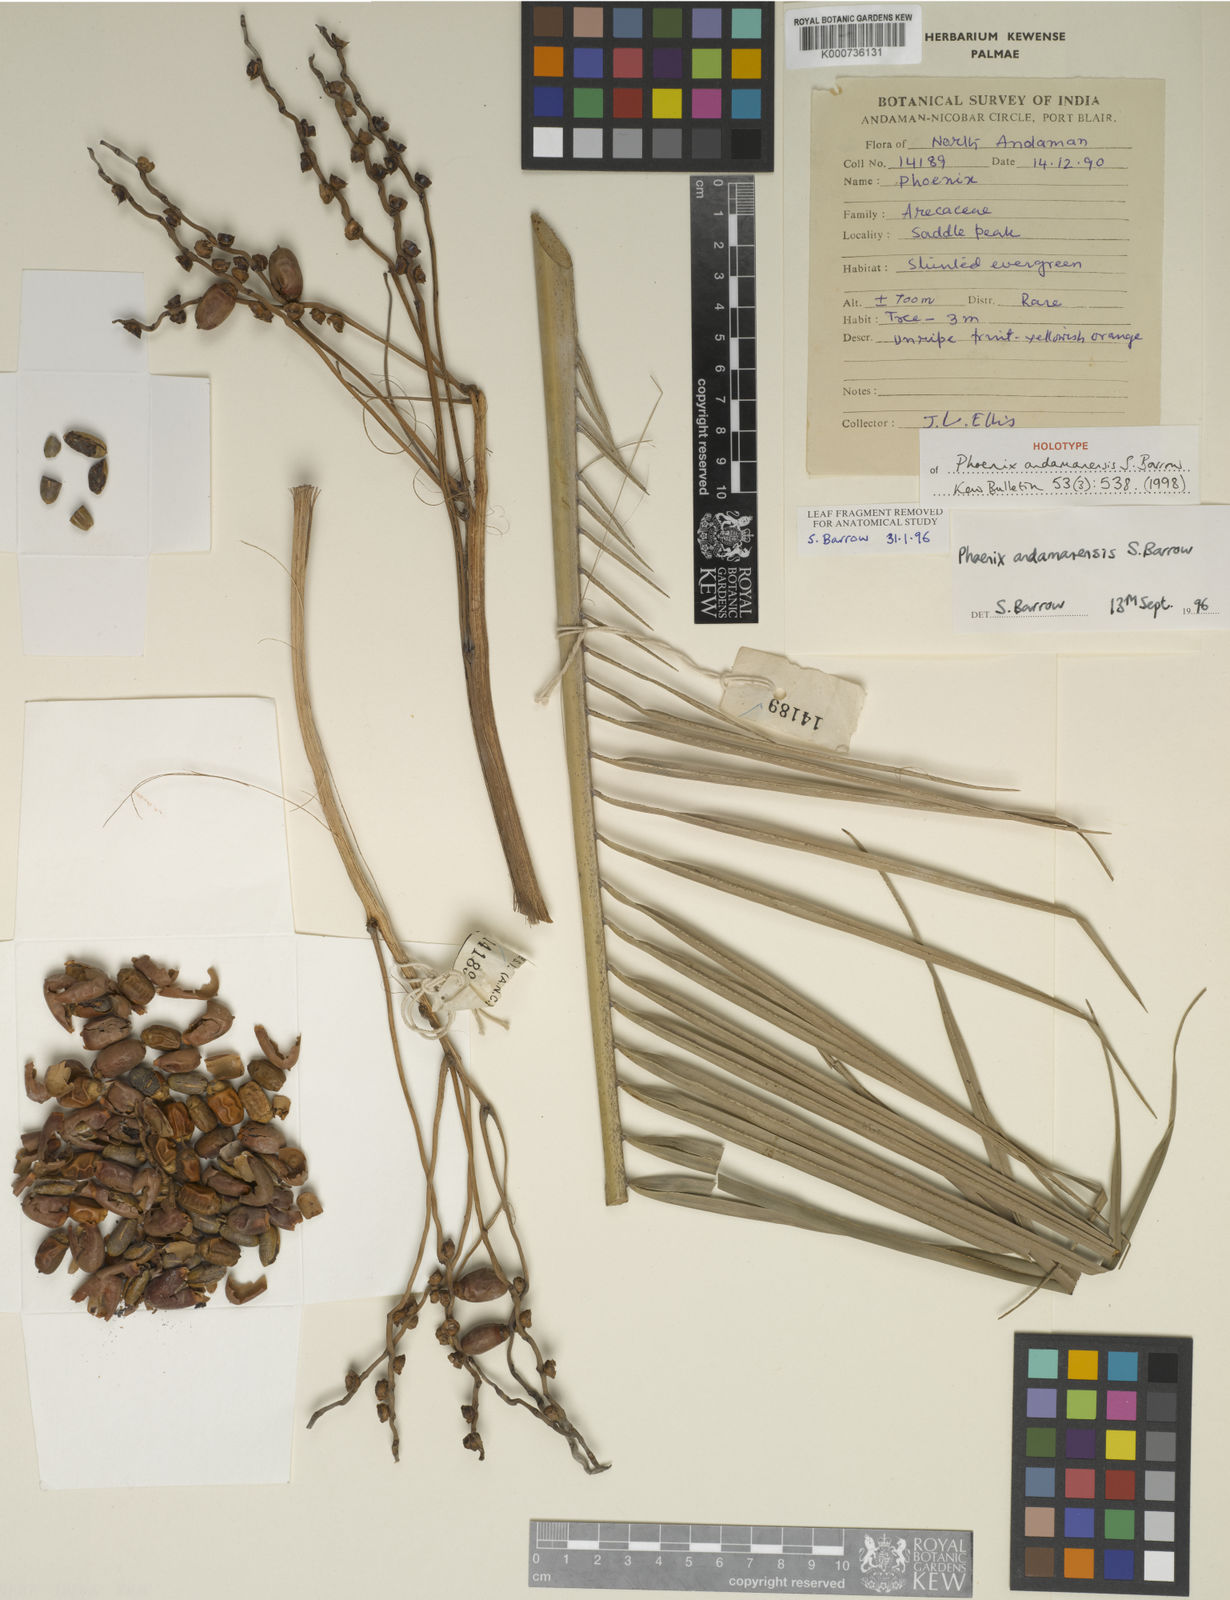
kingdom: Plantae
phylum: Tracheophyta
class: Liliopsida
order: Arecales
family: Arecaceae
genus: Phoenix
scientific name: Phoenix andamanensis
